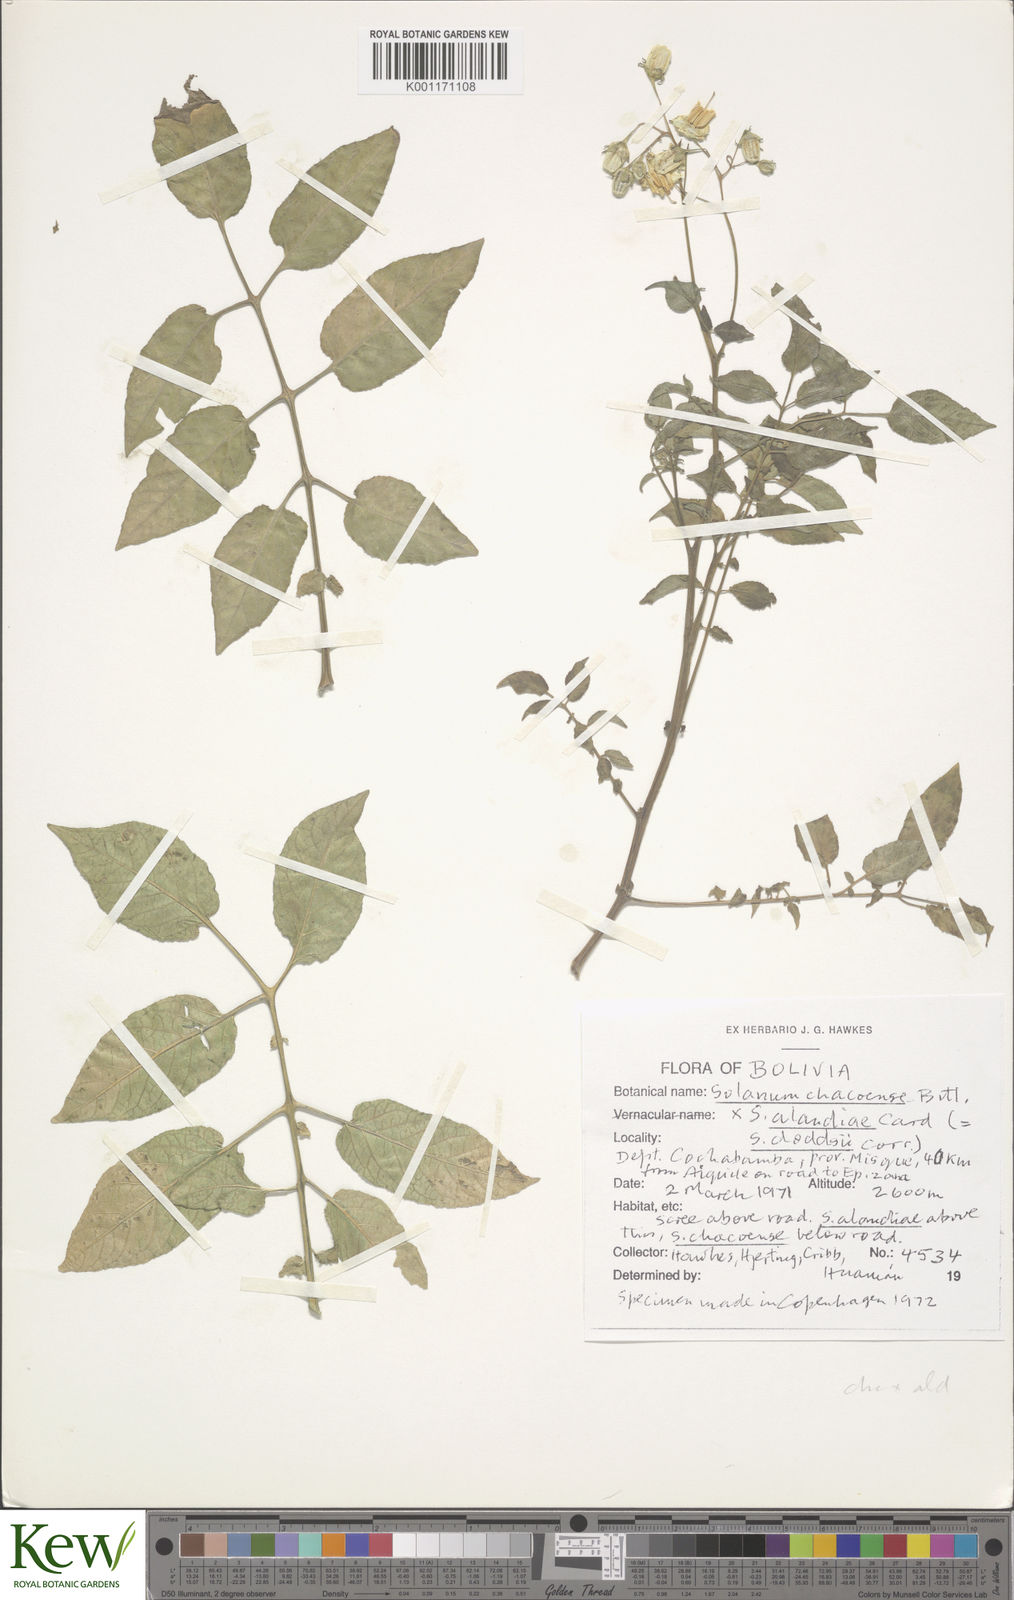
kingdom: Plantae
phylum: Tracheophyta
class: Magnoliopsida
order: Solanales
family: Solanaceae
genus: Solanum
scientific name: Solanum chacoense
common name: Chaco potato
